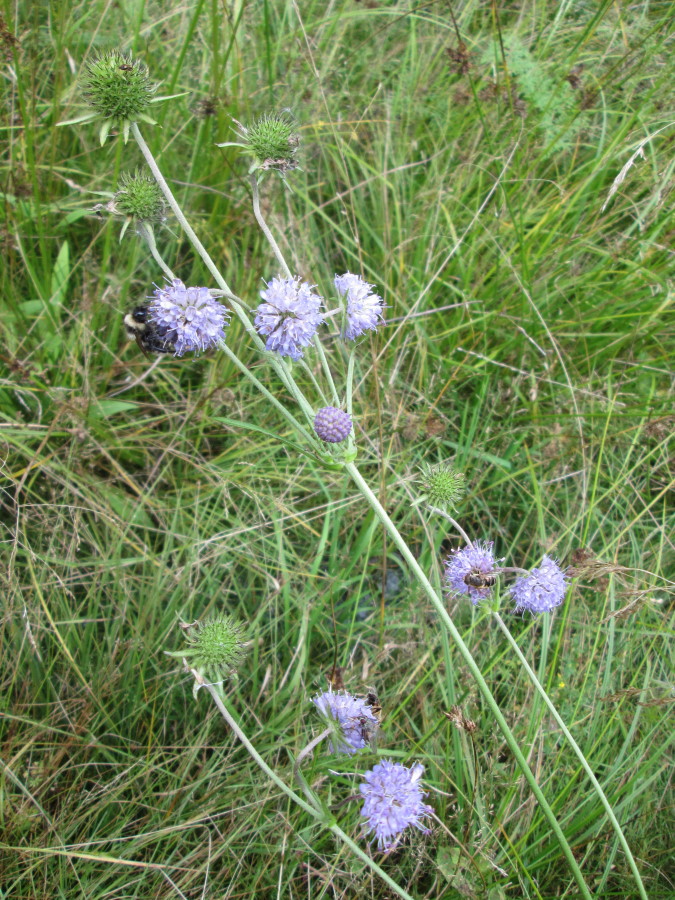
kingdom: Plantae
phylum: Tracheophyta
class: Magnoliopsida
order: Dipsacales
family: Caprifoliaceae
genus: Succisa
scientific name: Succisa pratensis
